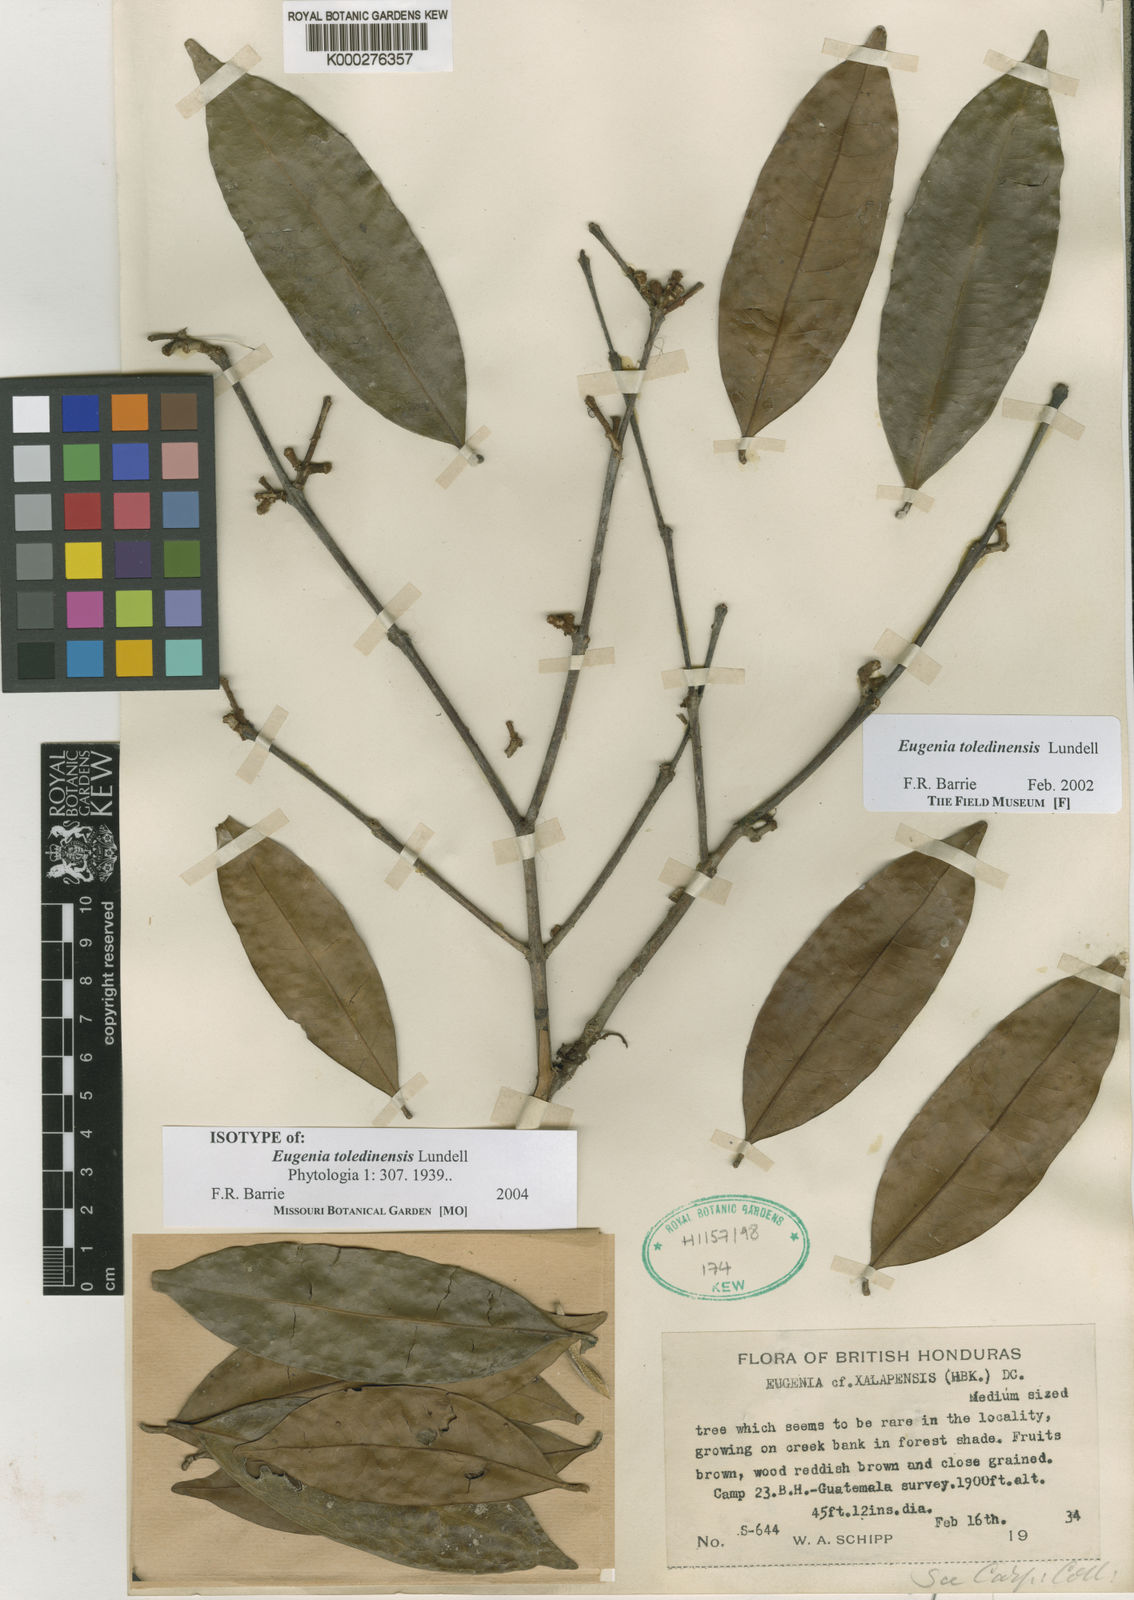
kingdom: Plantae
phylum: Tracheophyta
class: Magnoliopsida
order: Myrtales
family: Myrtaceae
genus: Eugenia
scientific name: Eugenia toledinensis
